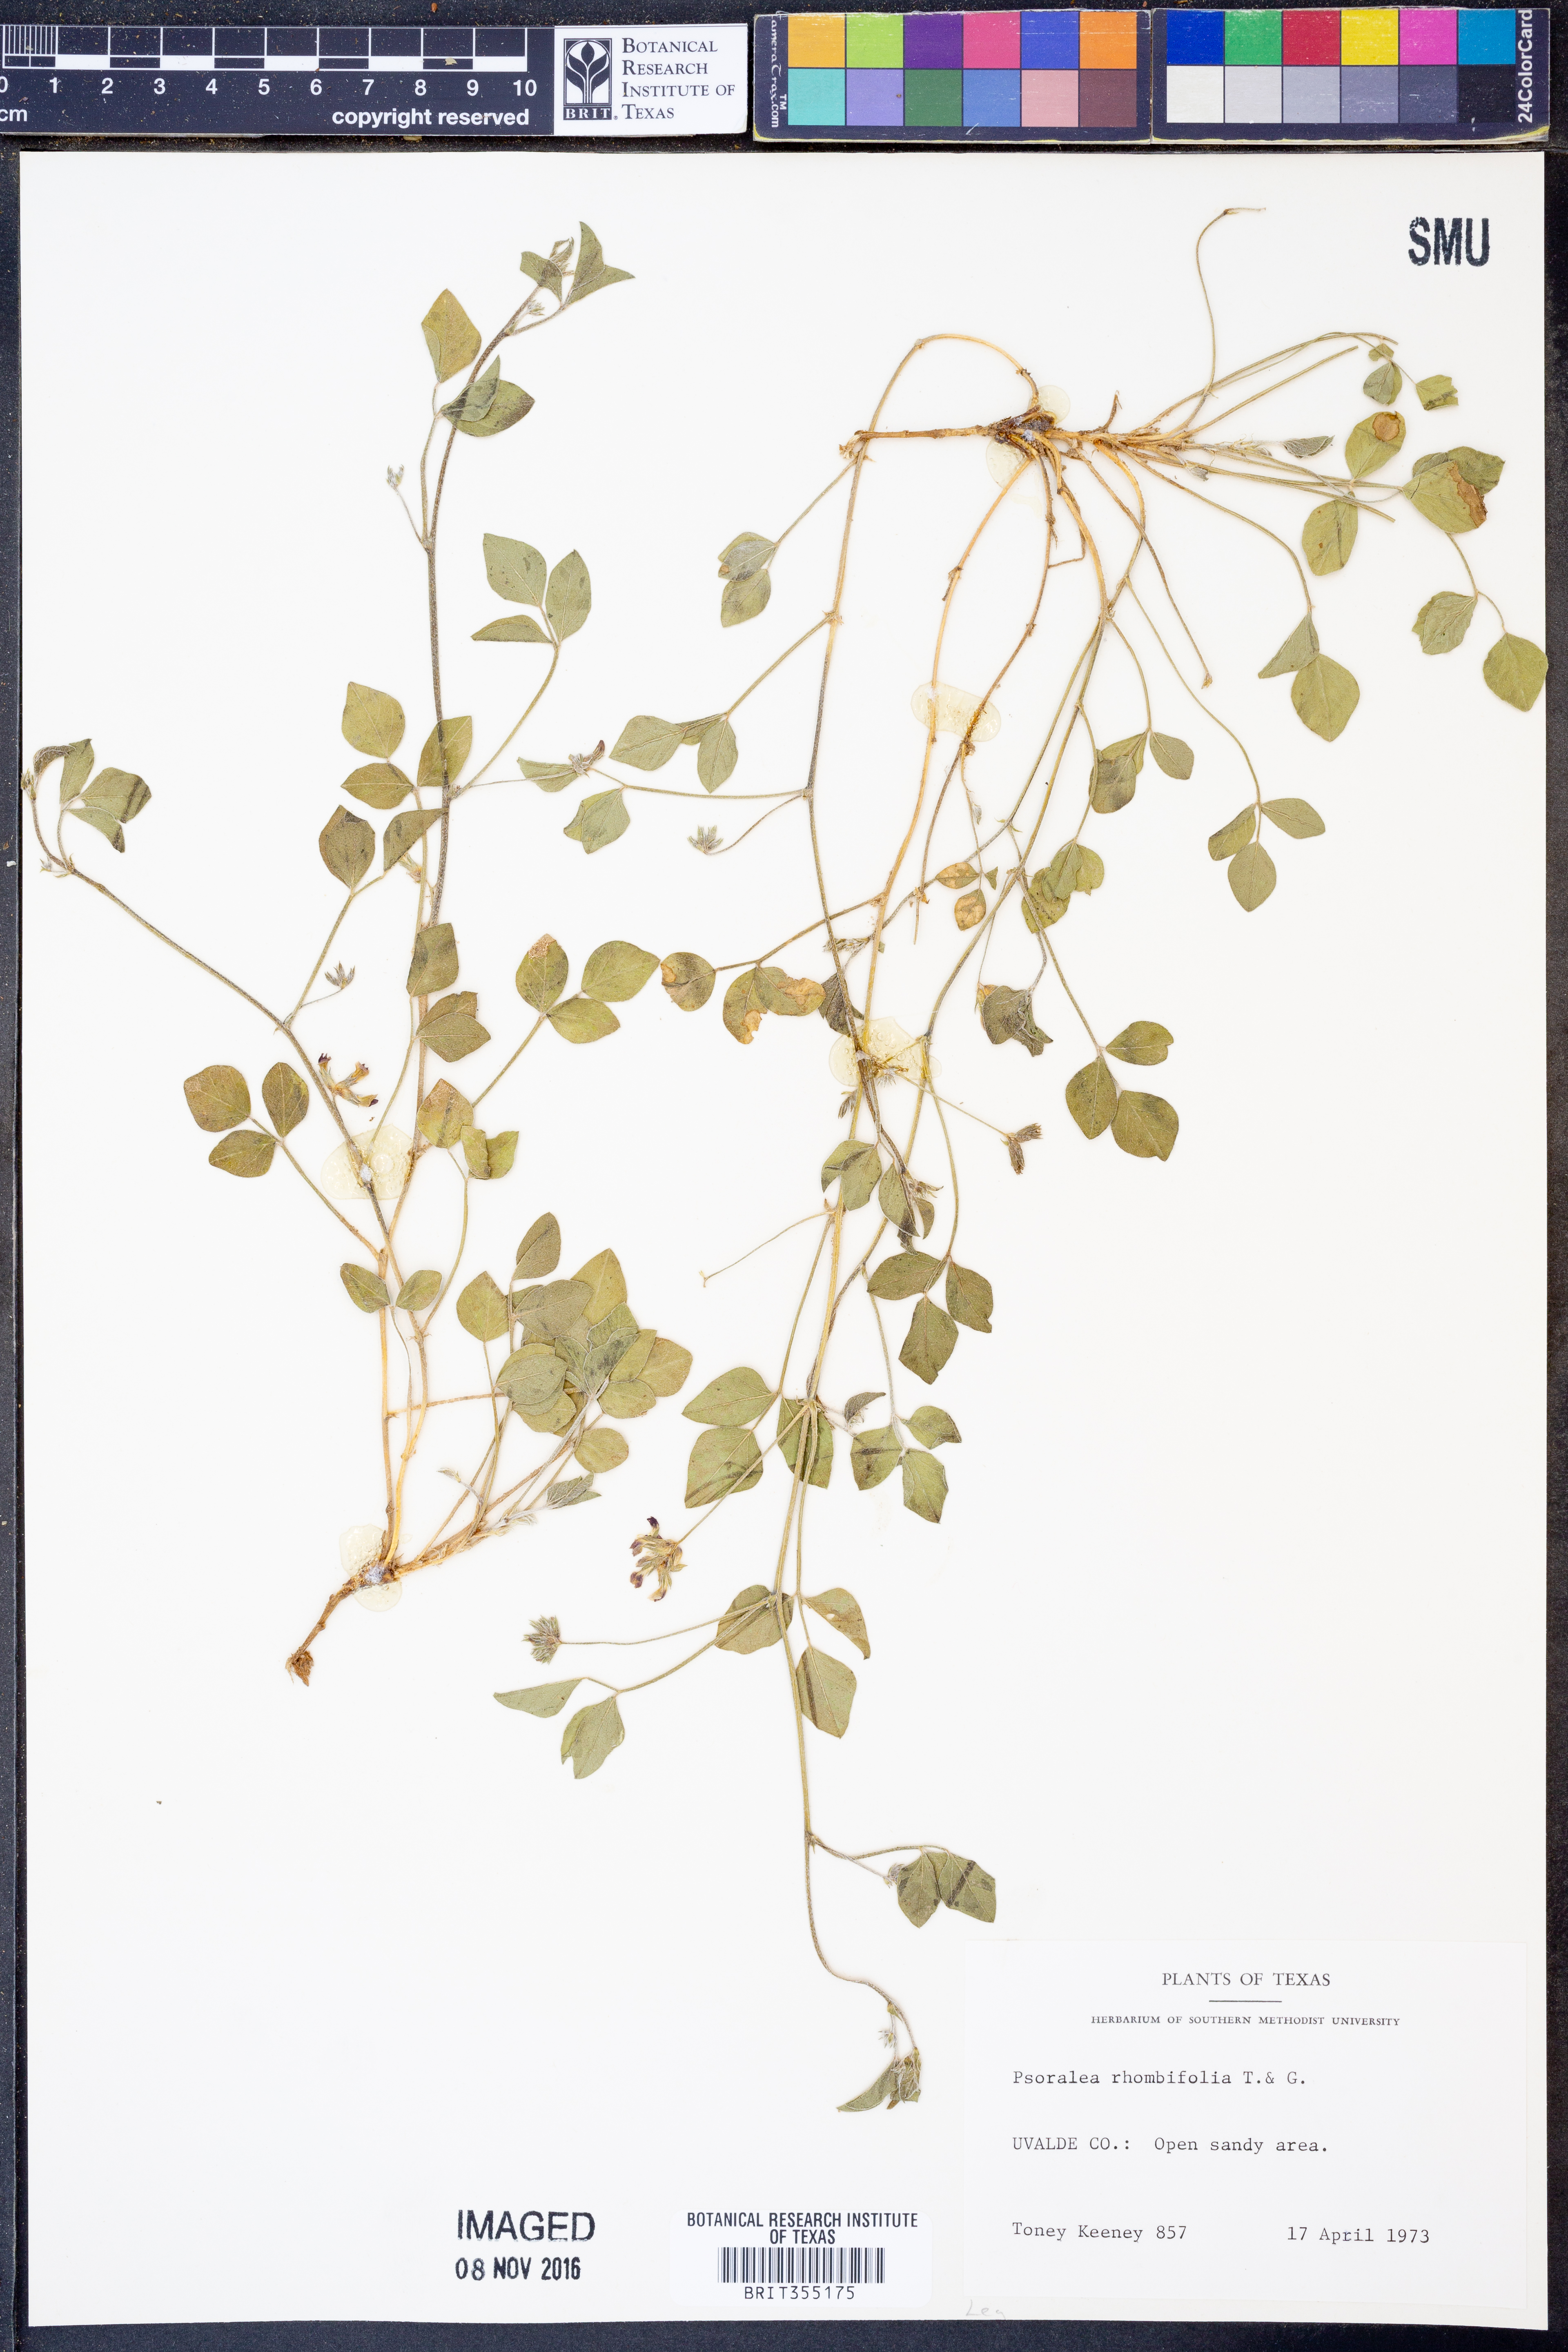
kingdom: Plantae
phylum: Tracheophyta
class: Magnoliopsida
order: Fabales
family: Fabaceae
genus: Pediomelum
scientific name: Pediomelum rhombifolium
